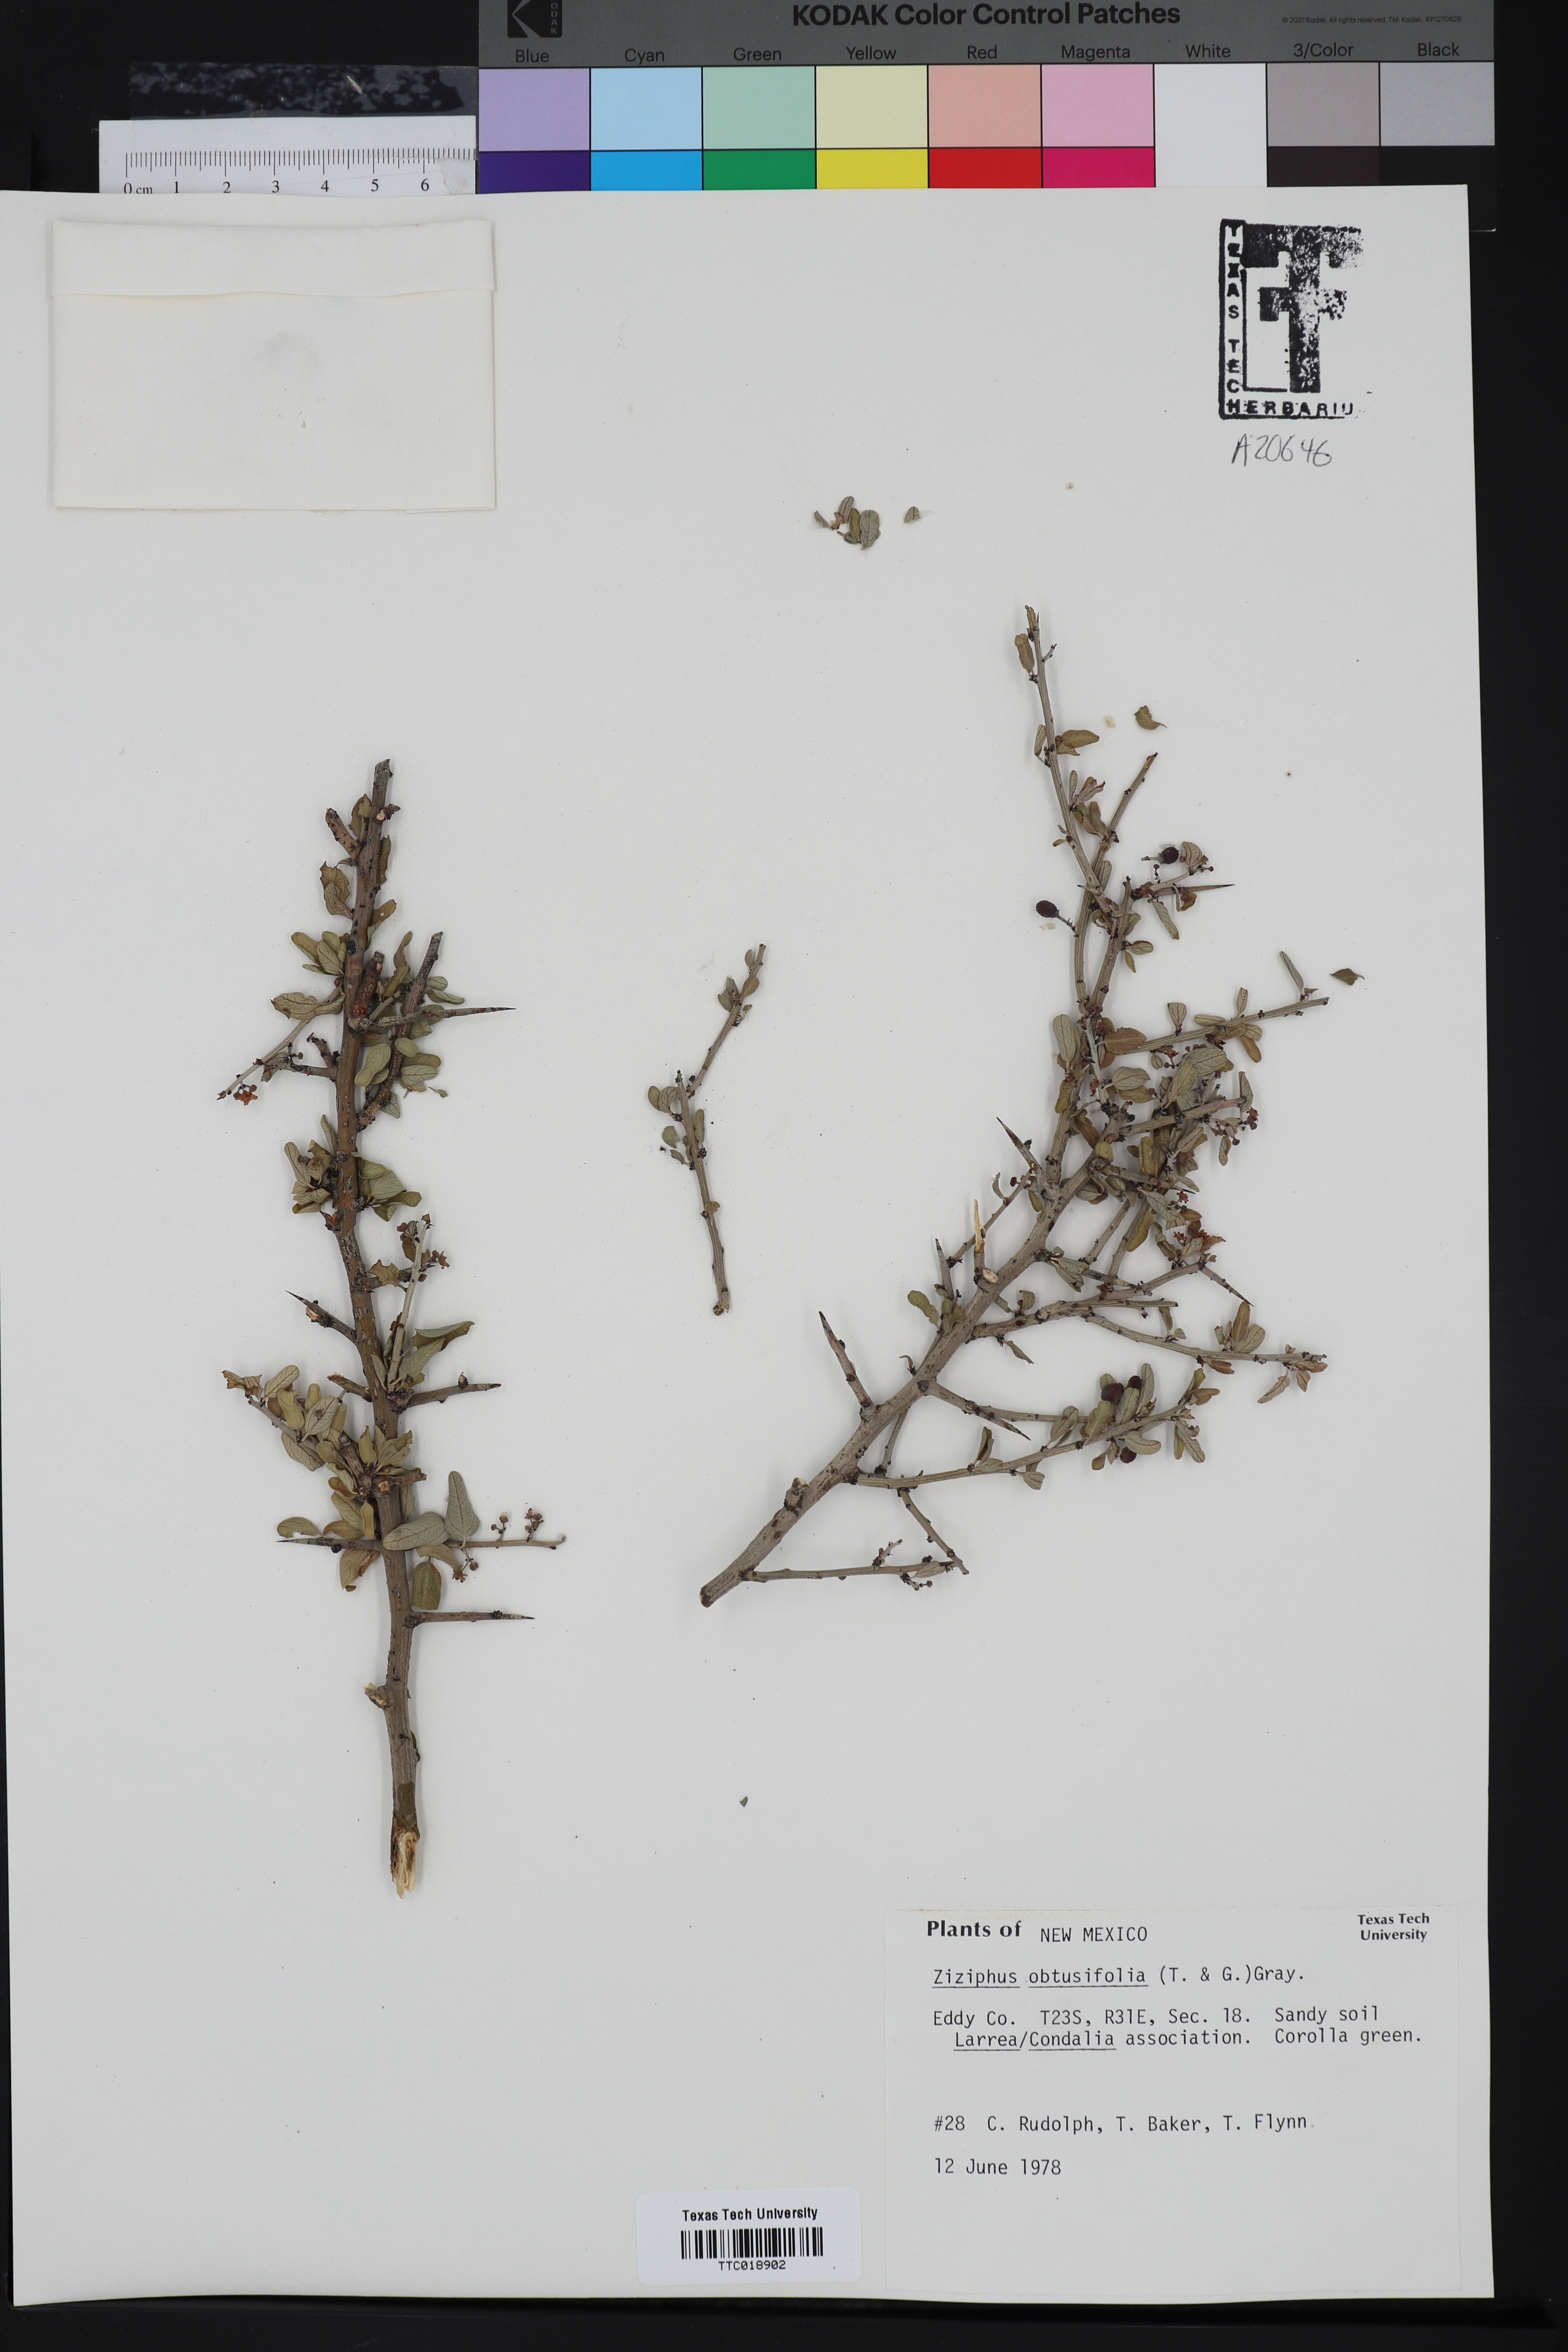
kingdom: Plantae
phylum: Tracheophyta
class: Magnoliopsida
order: Rosales
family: Rhamnaceae
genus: Sarcomphalus
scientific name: Sarcomphalus obtusifolius
